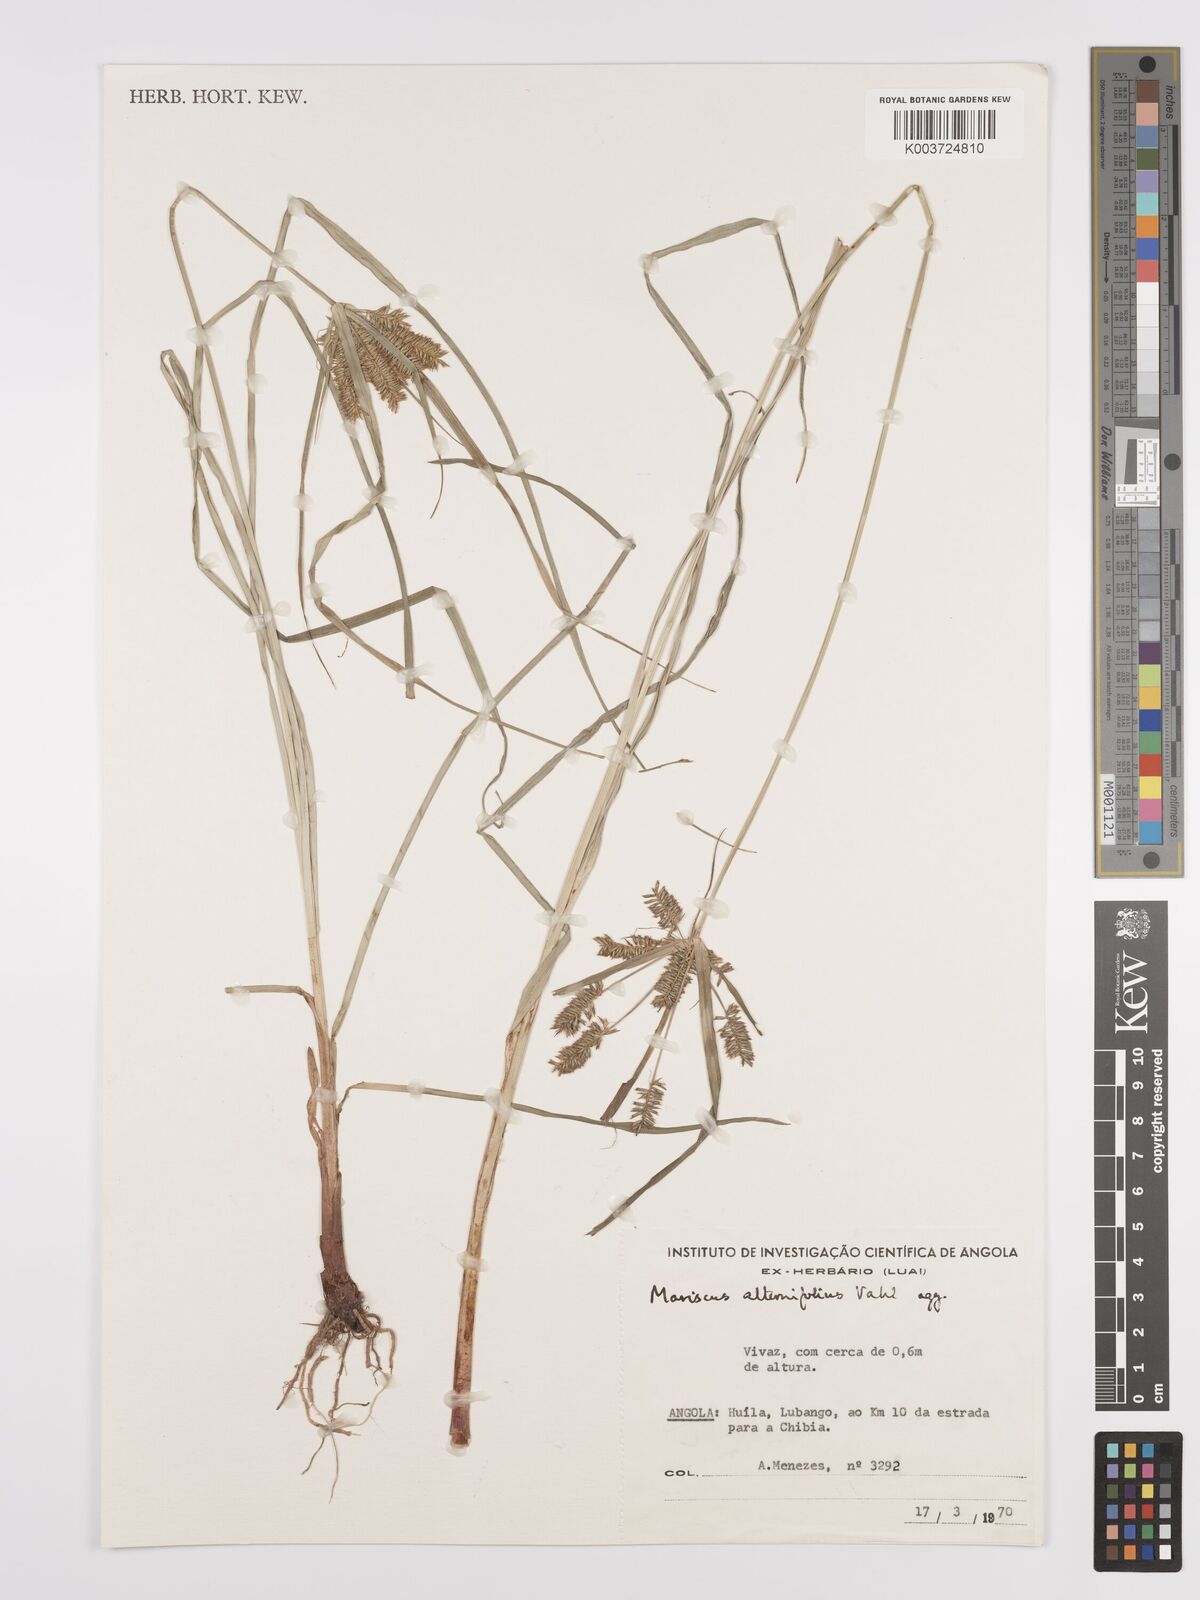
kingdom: Plantae
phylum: Tracheophyta
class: Liliopsida
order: Poales
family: Cyperaceae
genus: Cyperus
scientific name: Cyperus cyperoides
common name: Pacific island flat sedge
